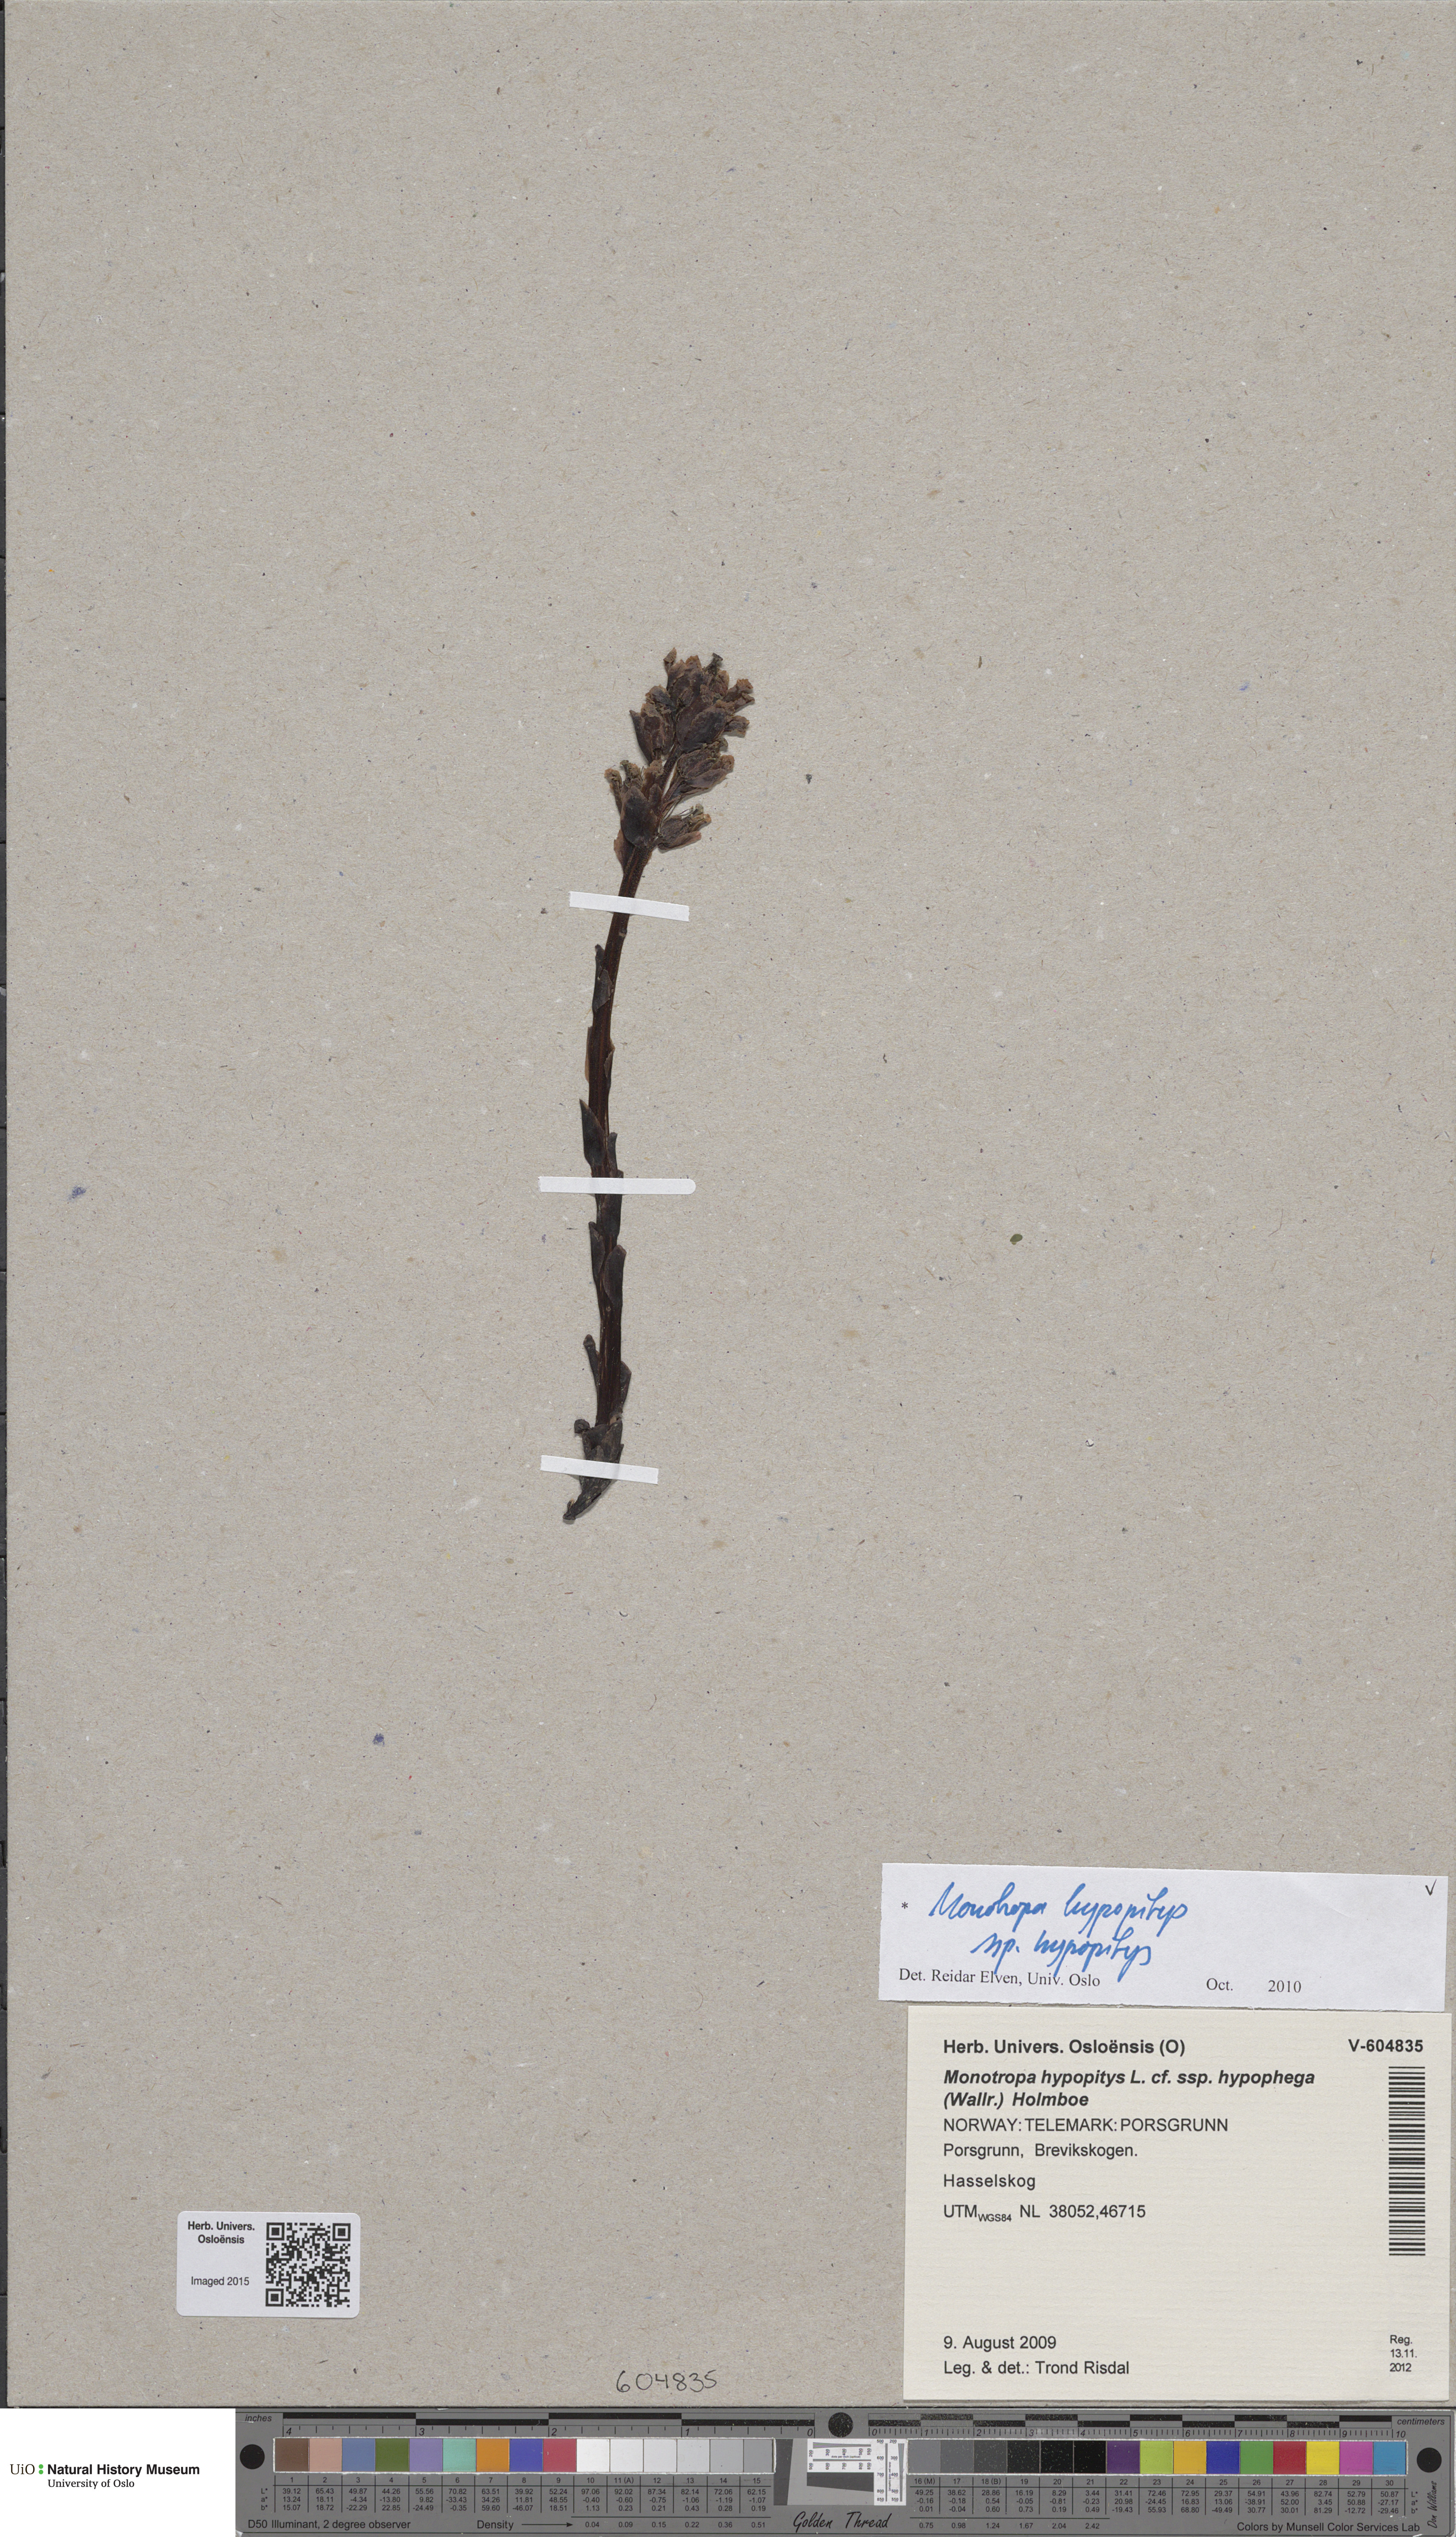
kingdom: Plantae
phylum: Tracheophyta
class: Magnoliopsida
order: Ericales
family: Ericaceae
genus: Hypopitys
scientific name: Hypopitys monotropa
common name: Yellow bird's-nest
